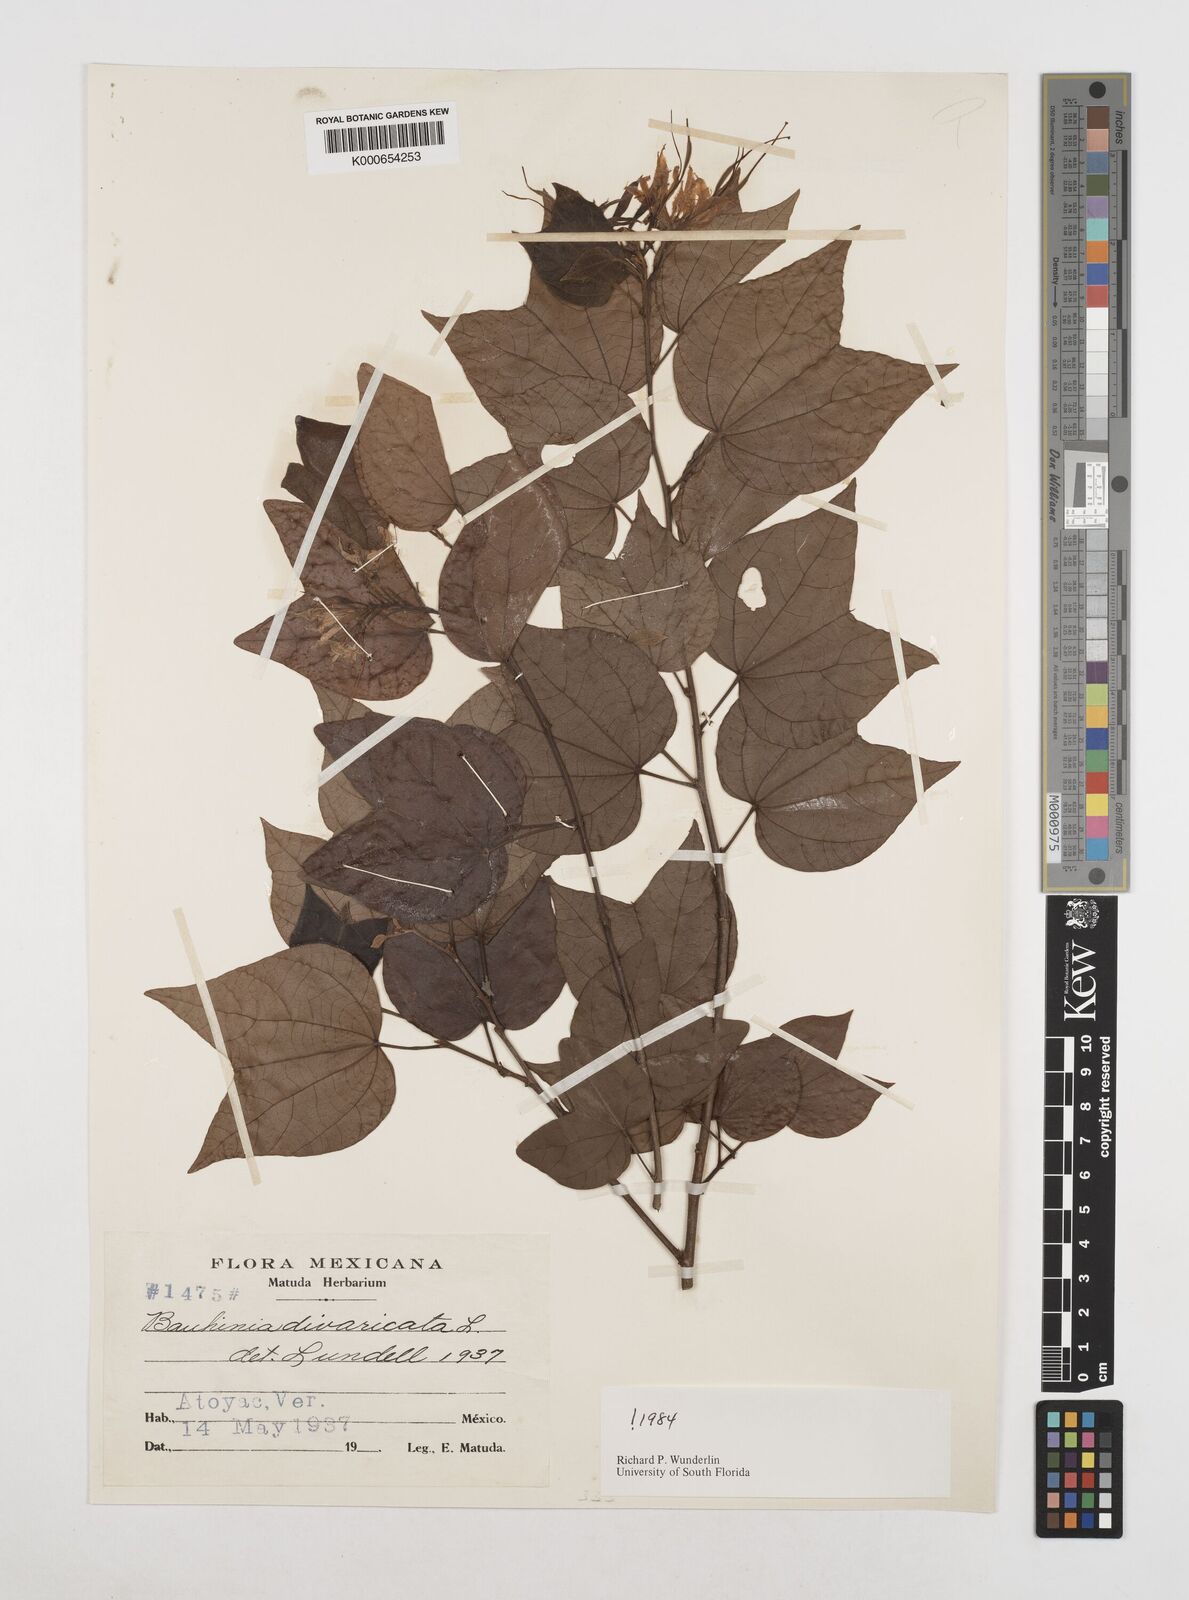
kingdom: Plantae
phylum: Tracheophyta
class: Magnoliopsida
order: Fabales
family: Fabaceae
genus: Bauhinia
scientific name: Bauhinia divaricata
